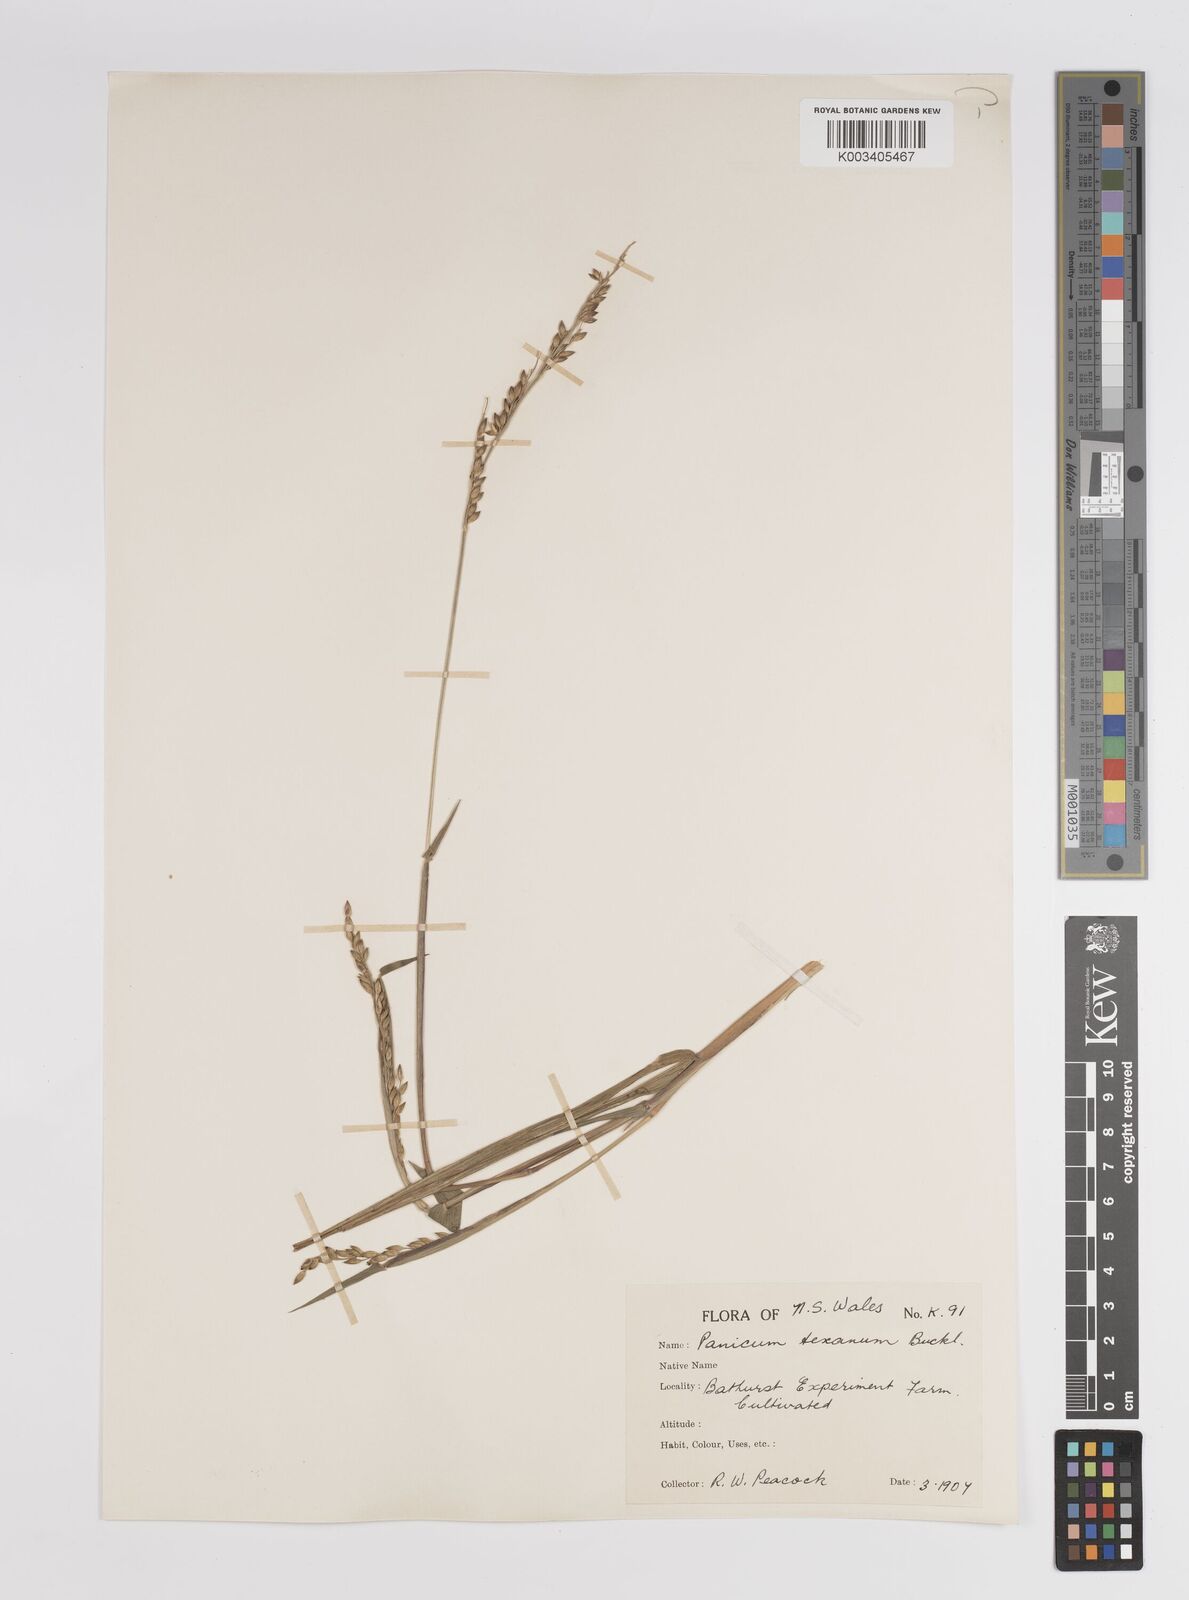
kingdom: Plantae
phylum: Tracheophyta
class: Liliopsida
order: Poales
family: Poaceae
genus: Urochloa
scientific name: Urochloa texana
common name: Texas millet
